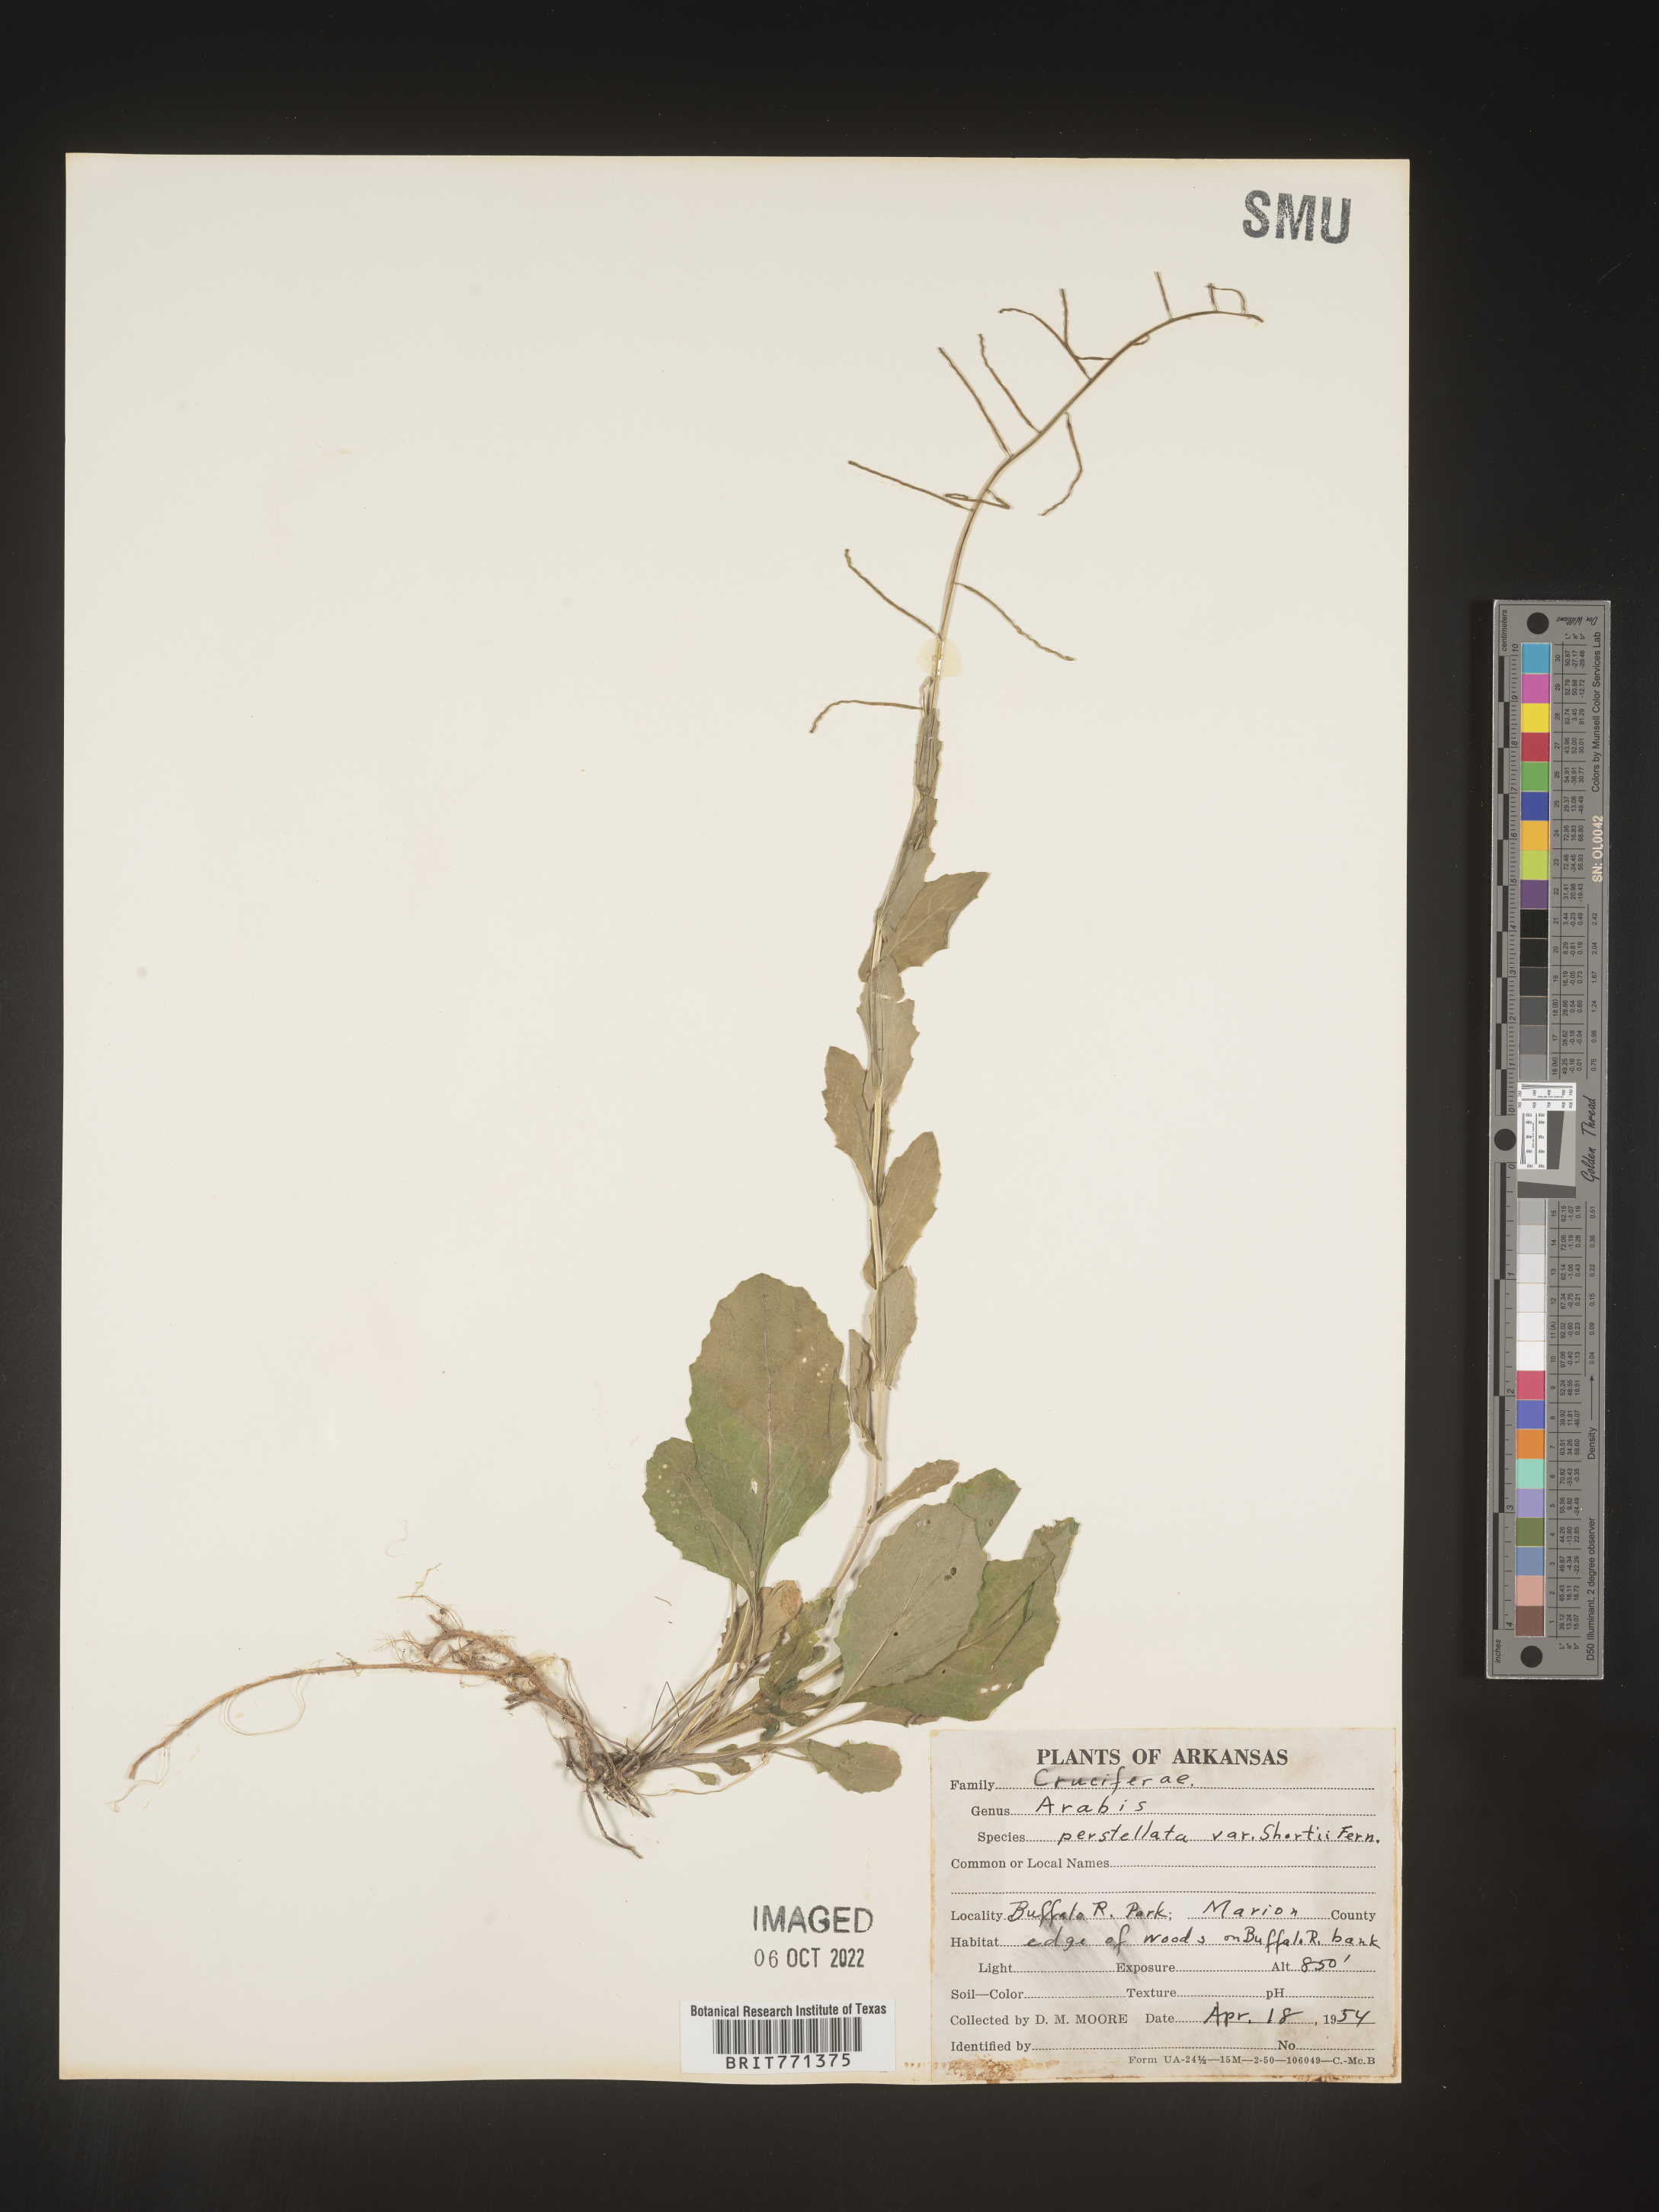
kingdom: Plantae
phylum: Tracheophyta
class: Magnoliopsida
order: Brassicales
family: Brassicaceae
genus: Arabis
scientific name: Arabis
